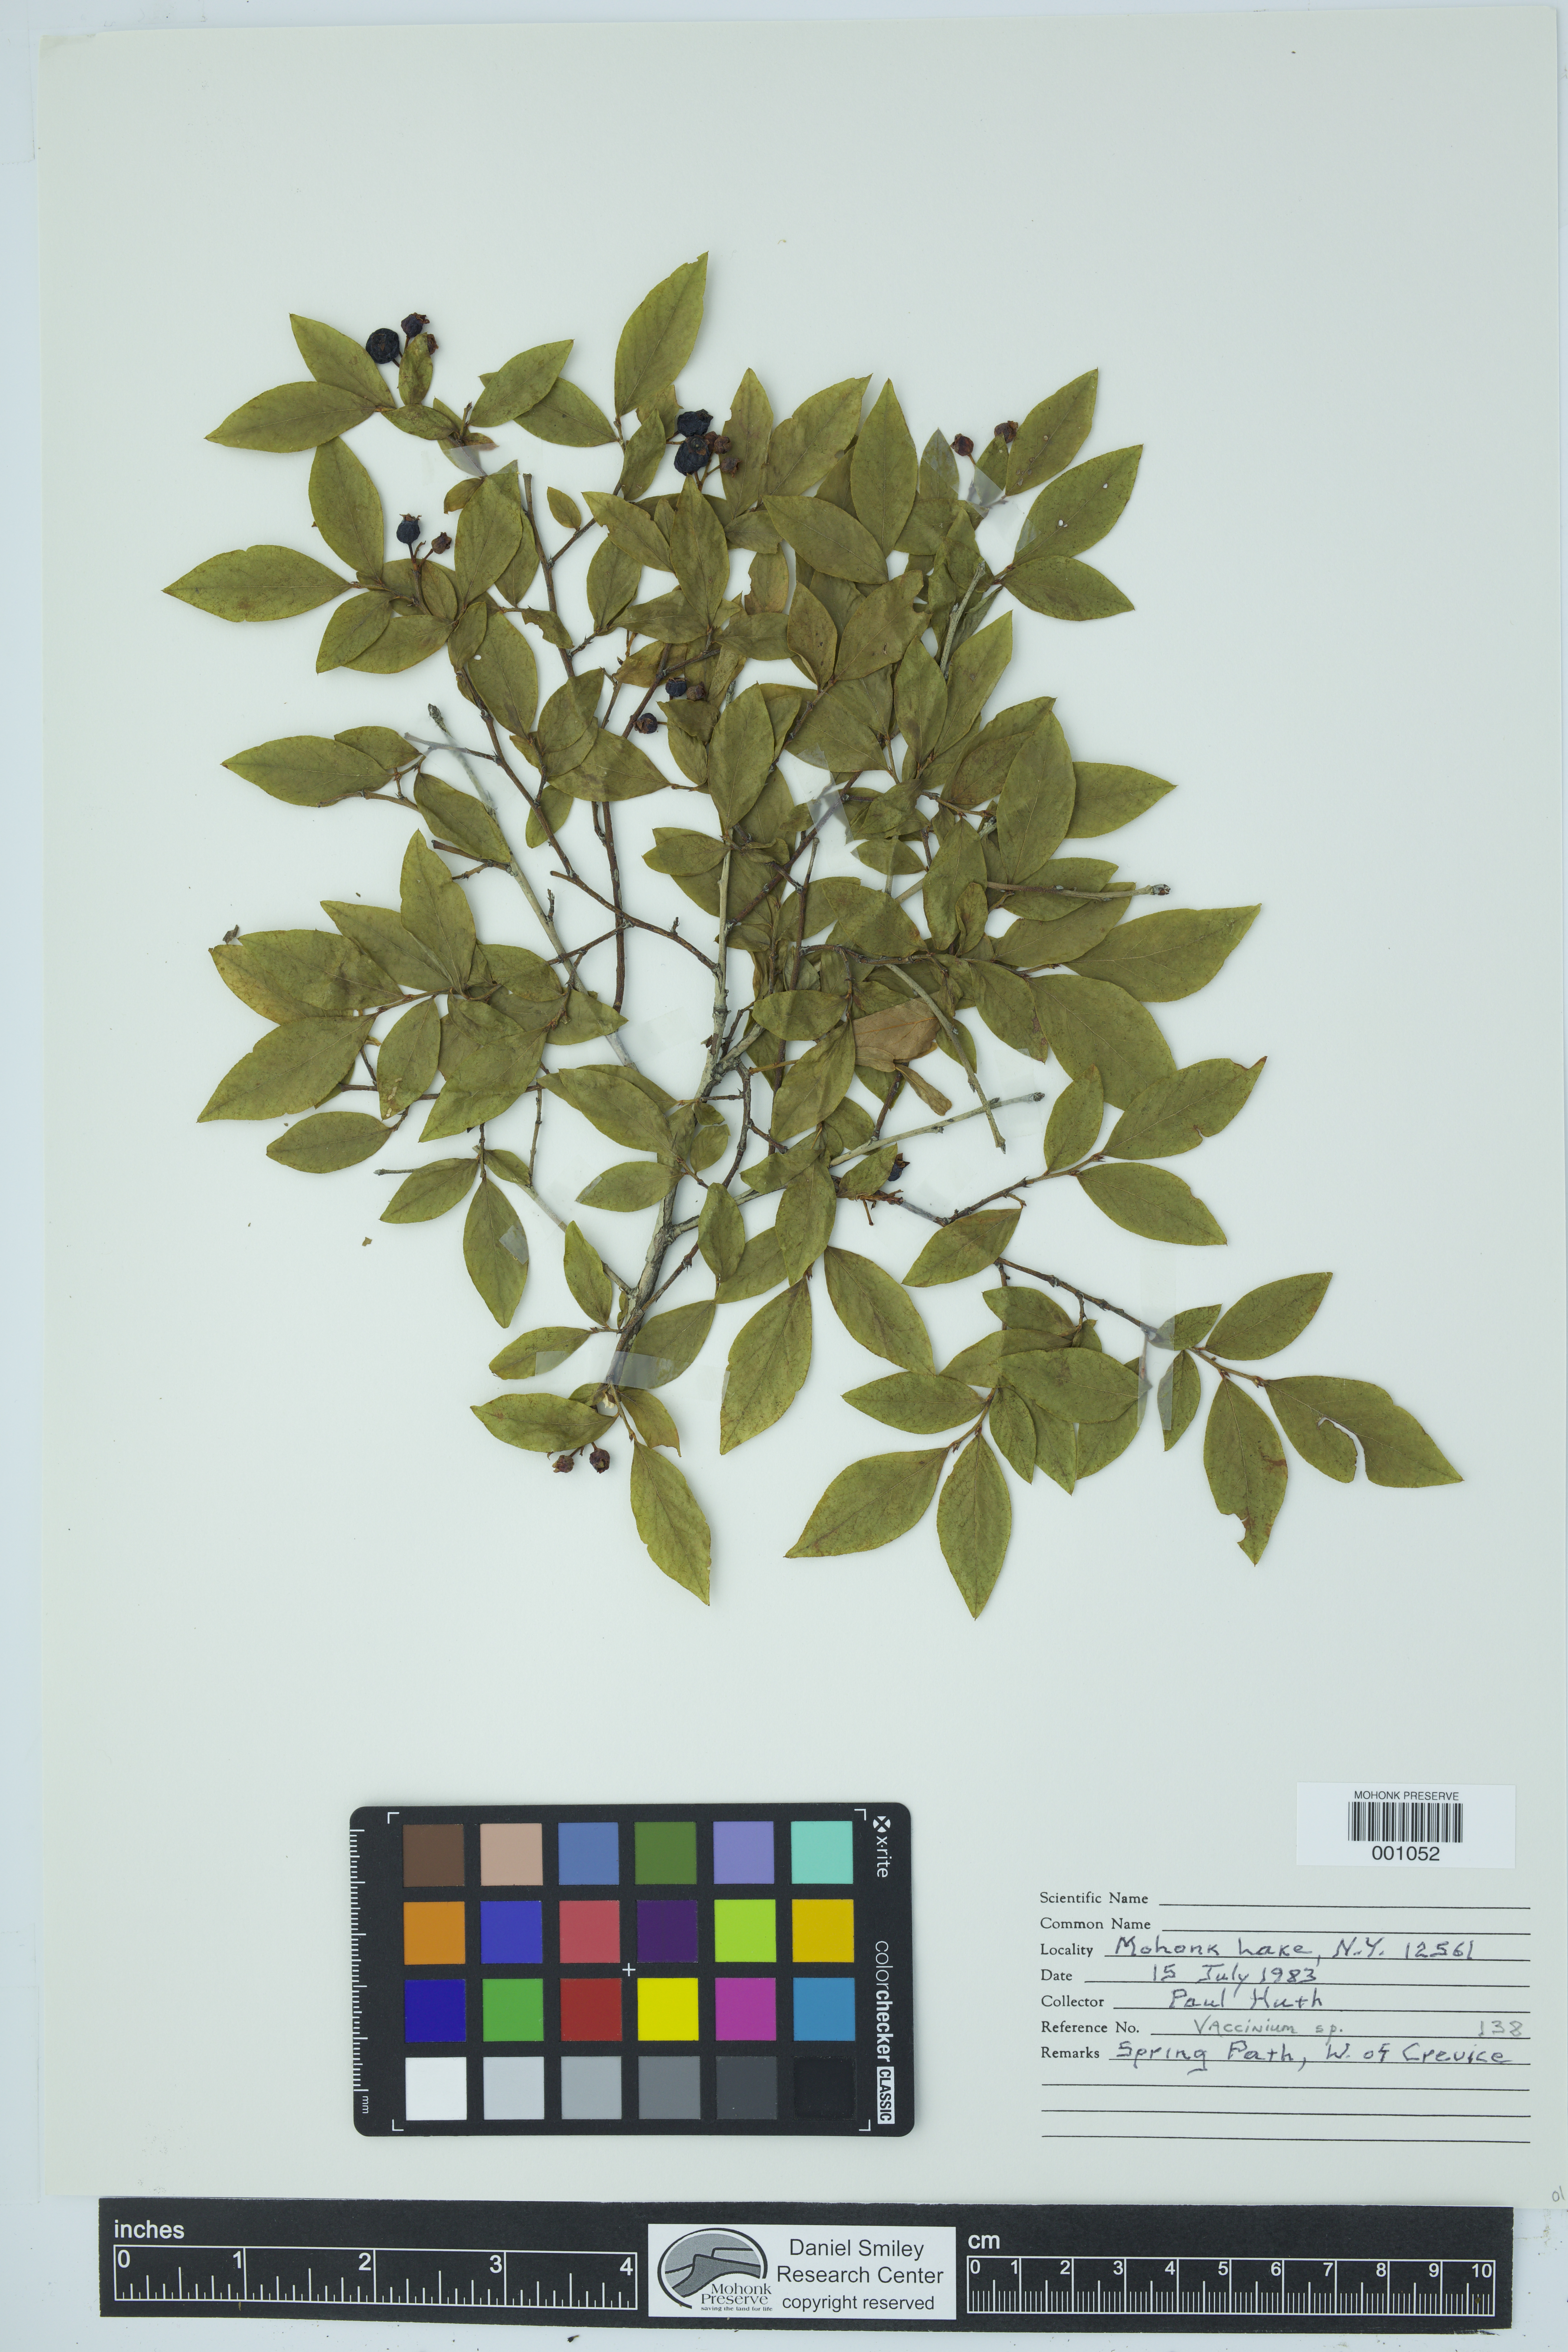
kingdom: Plantae
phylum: Tracheophyta
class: Magnoliopsida
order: Ericales
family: Ericaceae
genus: Vaccinium
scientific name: Vaccinium
